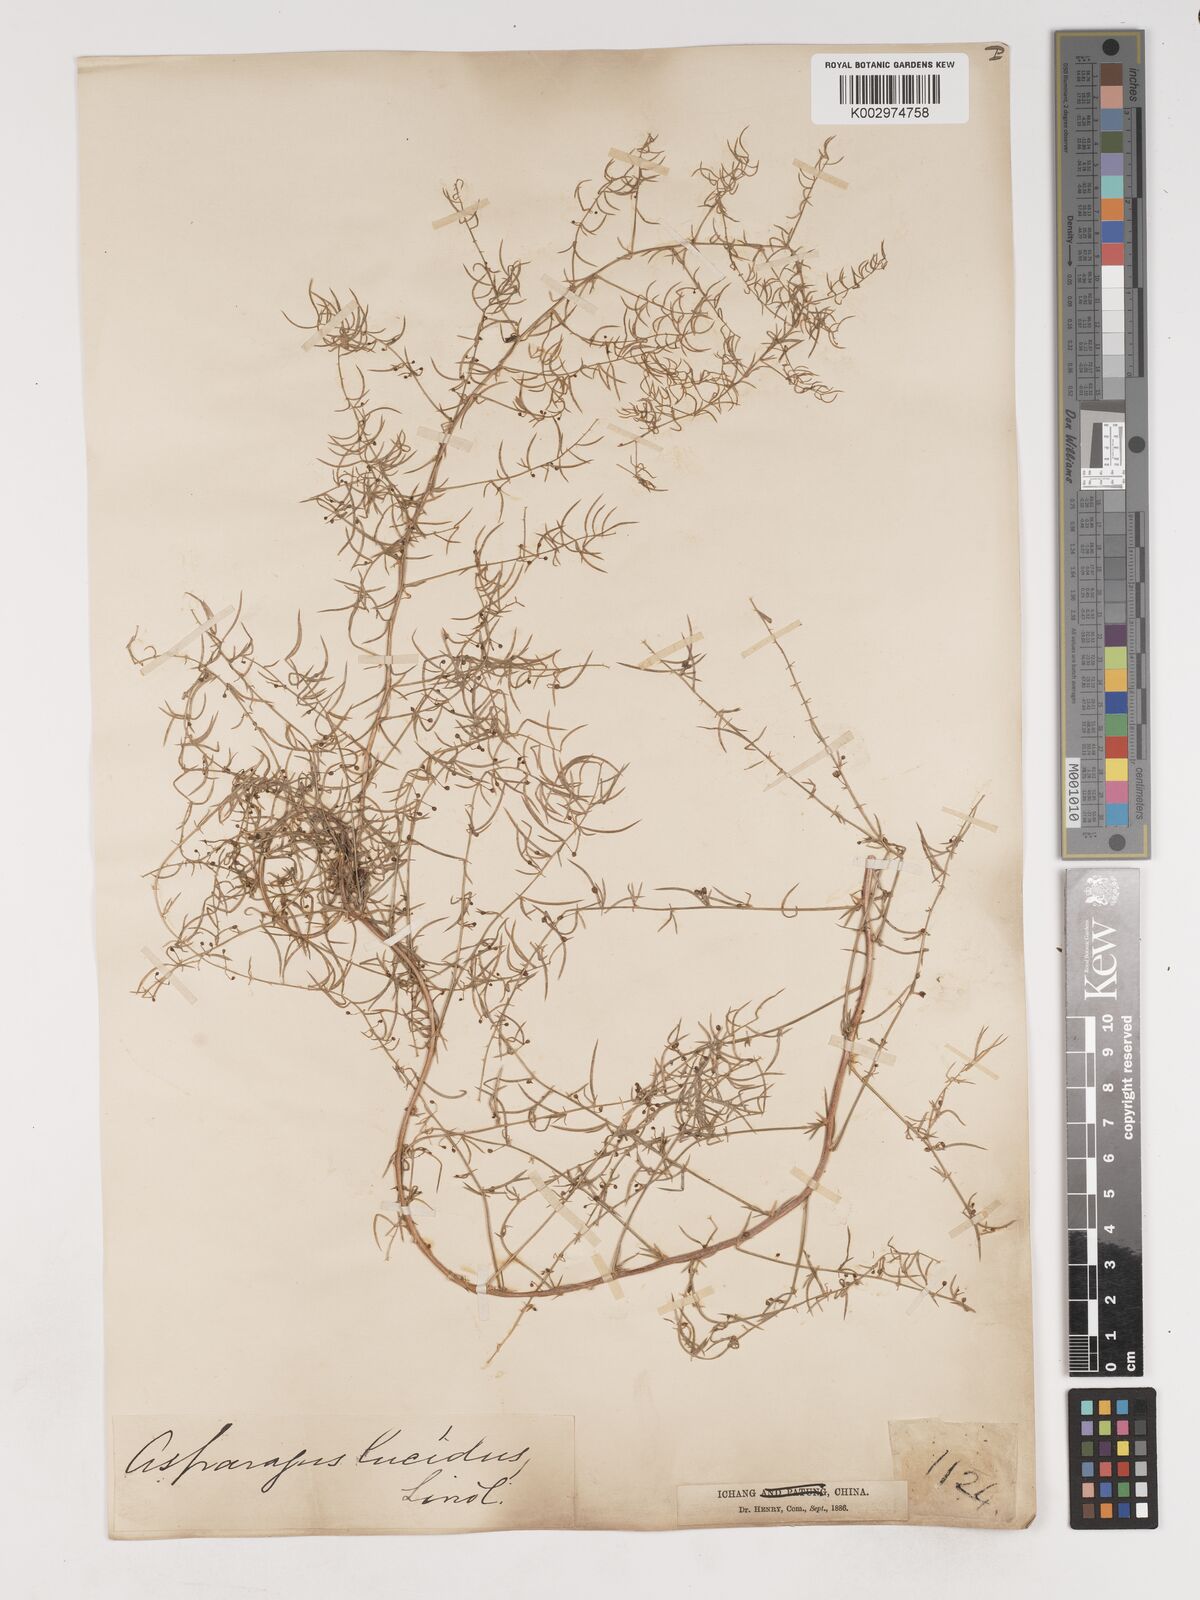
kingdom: Plantae
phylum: Tracheophyta
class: Liliopsida
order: Asparagales
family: Asparagaceae
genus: Asparagus
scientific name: Asparagus
